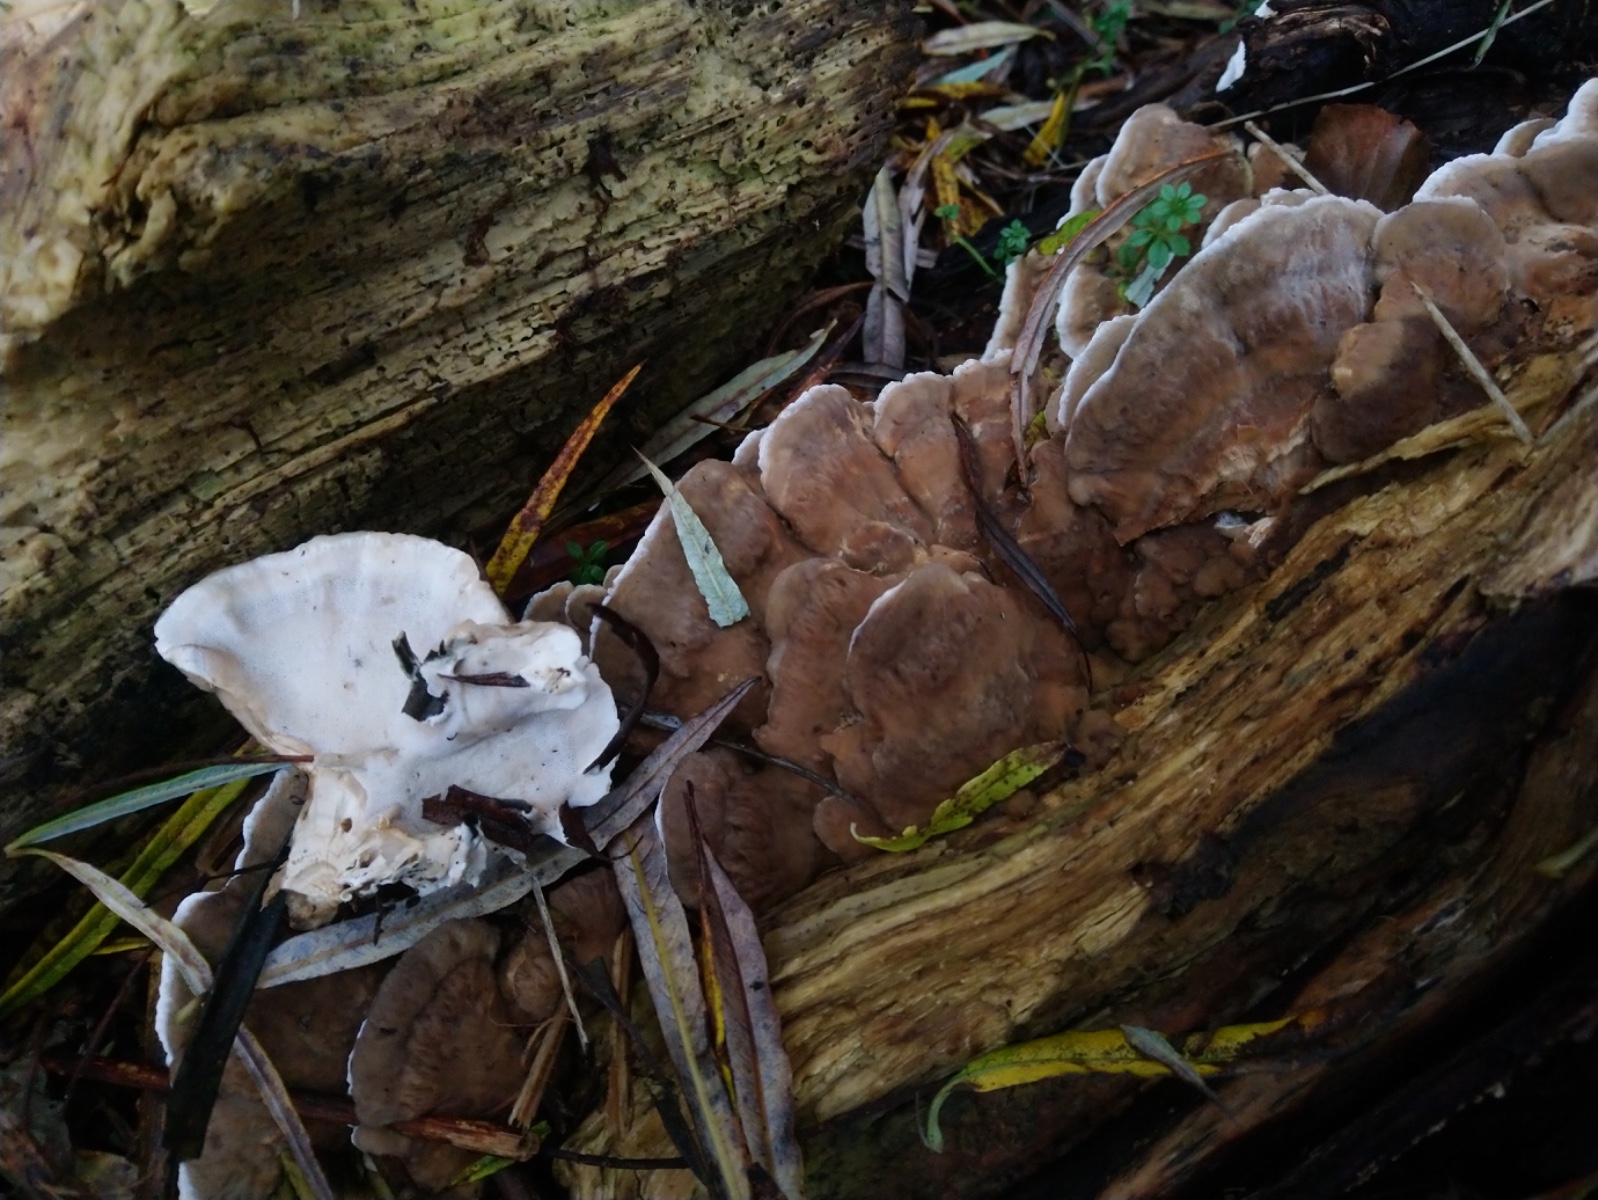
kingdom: Fungi
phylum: Basidiomycota
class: Agaricomycetes
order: Polyporales
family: Phanerochaetaceae
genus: Bjerkandera
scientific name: Bjerkandera fumosa
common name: grågul sodporesvamp
